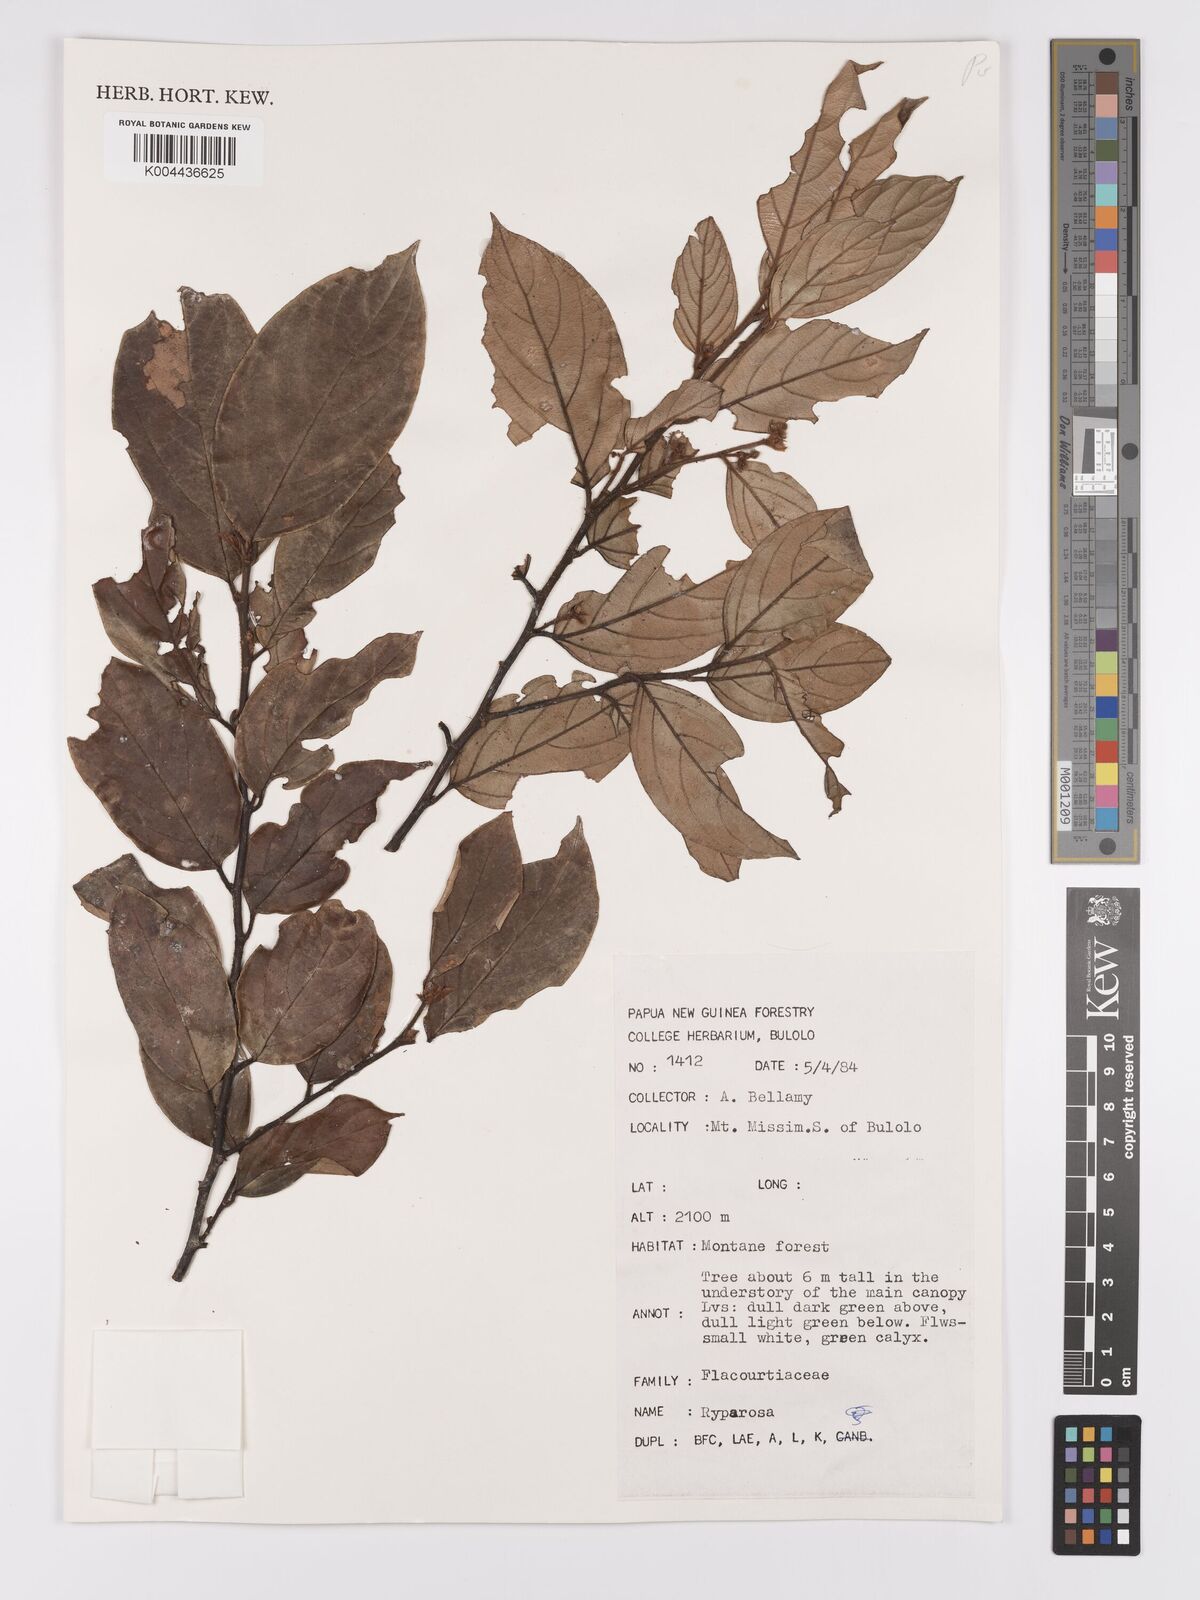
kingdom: Plantae
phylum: Tracheophyta
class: Magnoliopsida
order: Malpighiales
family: Achariaceae
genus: Ryparosa
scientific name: Ryparosa
